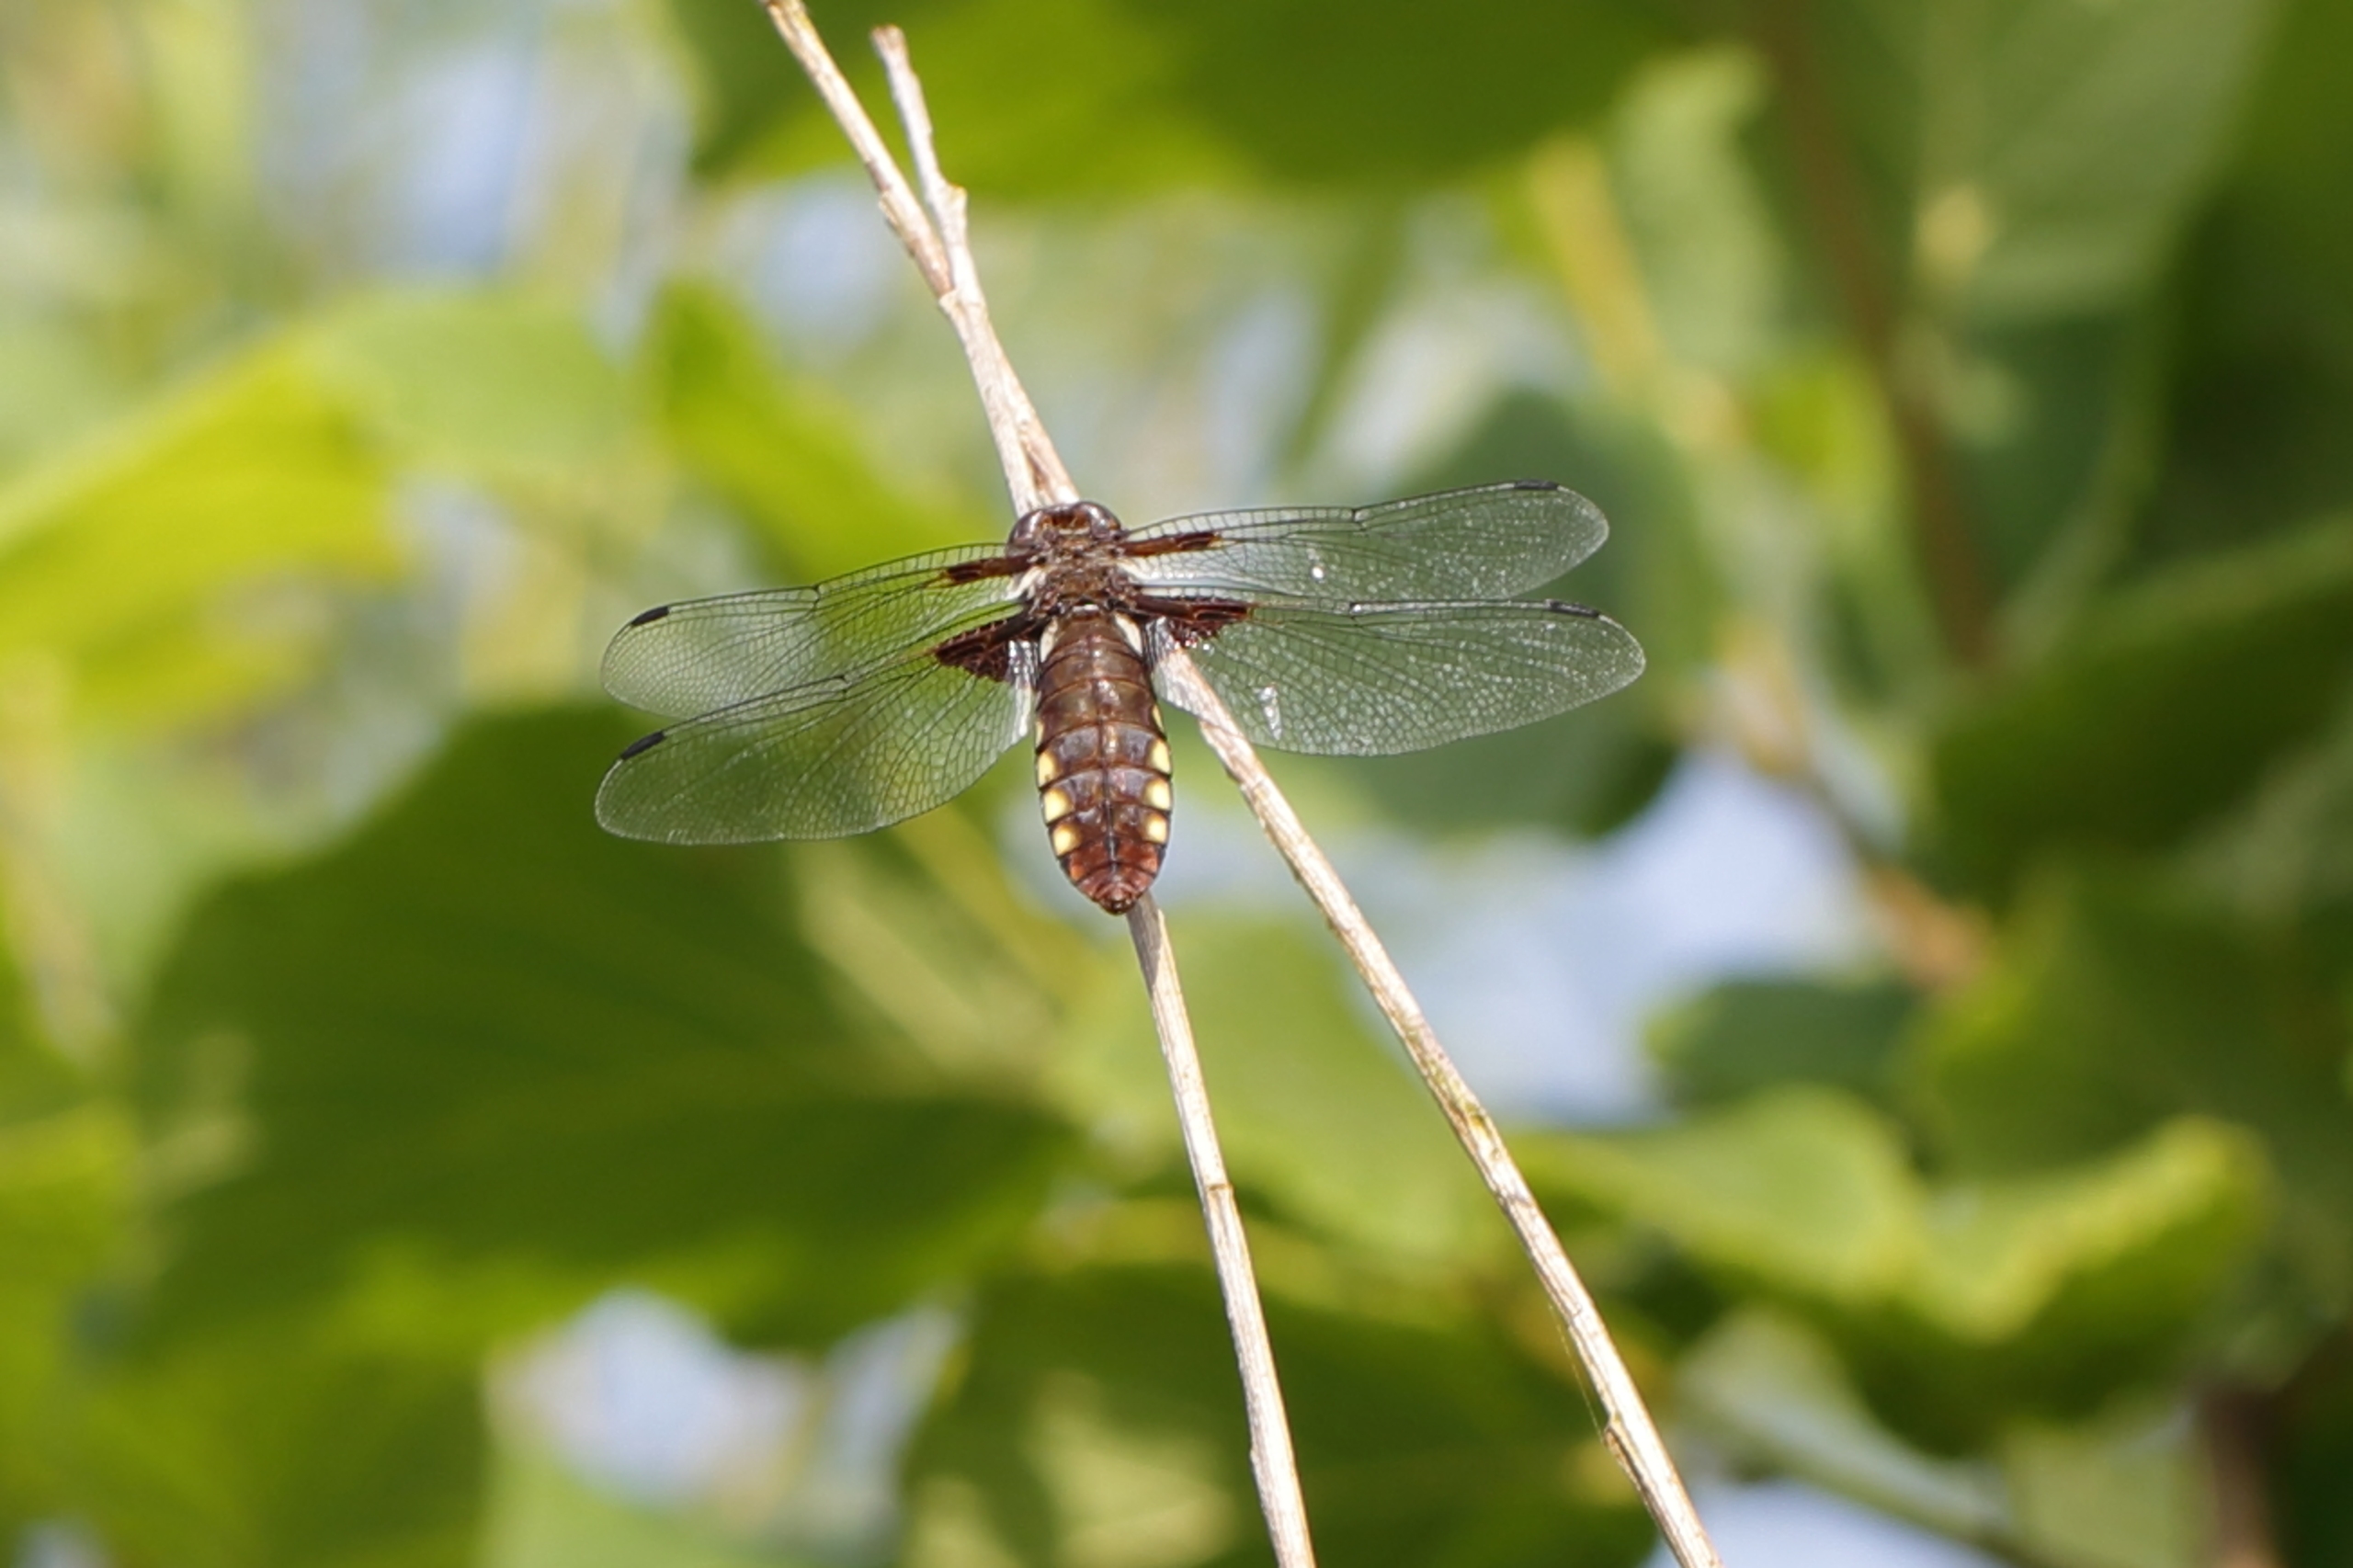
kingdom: Animalia
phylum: Arthropoda
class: Insecta
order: Odonata
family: Libellulidae
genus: Libellula
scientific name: Libellula depressa
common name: Blå libel
